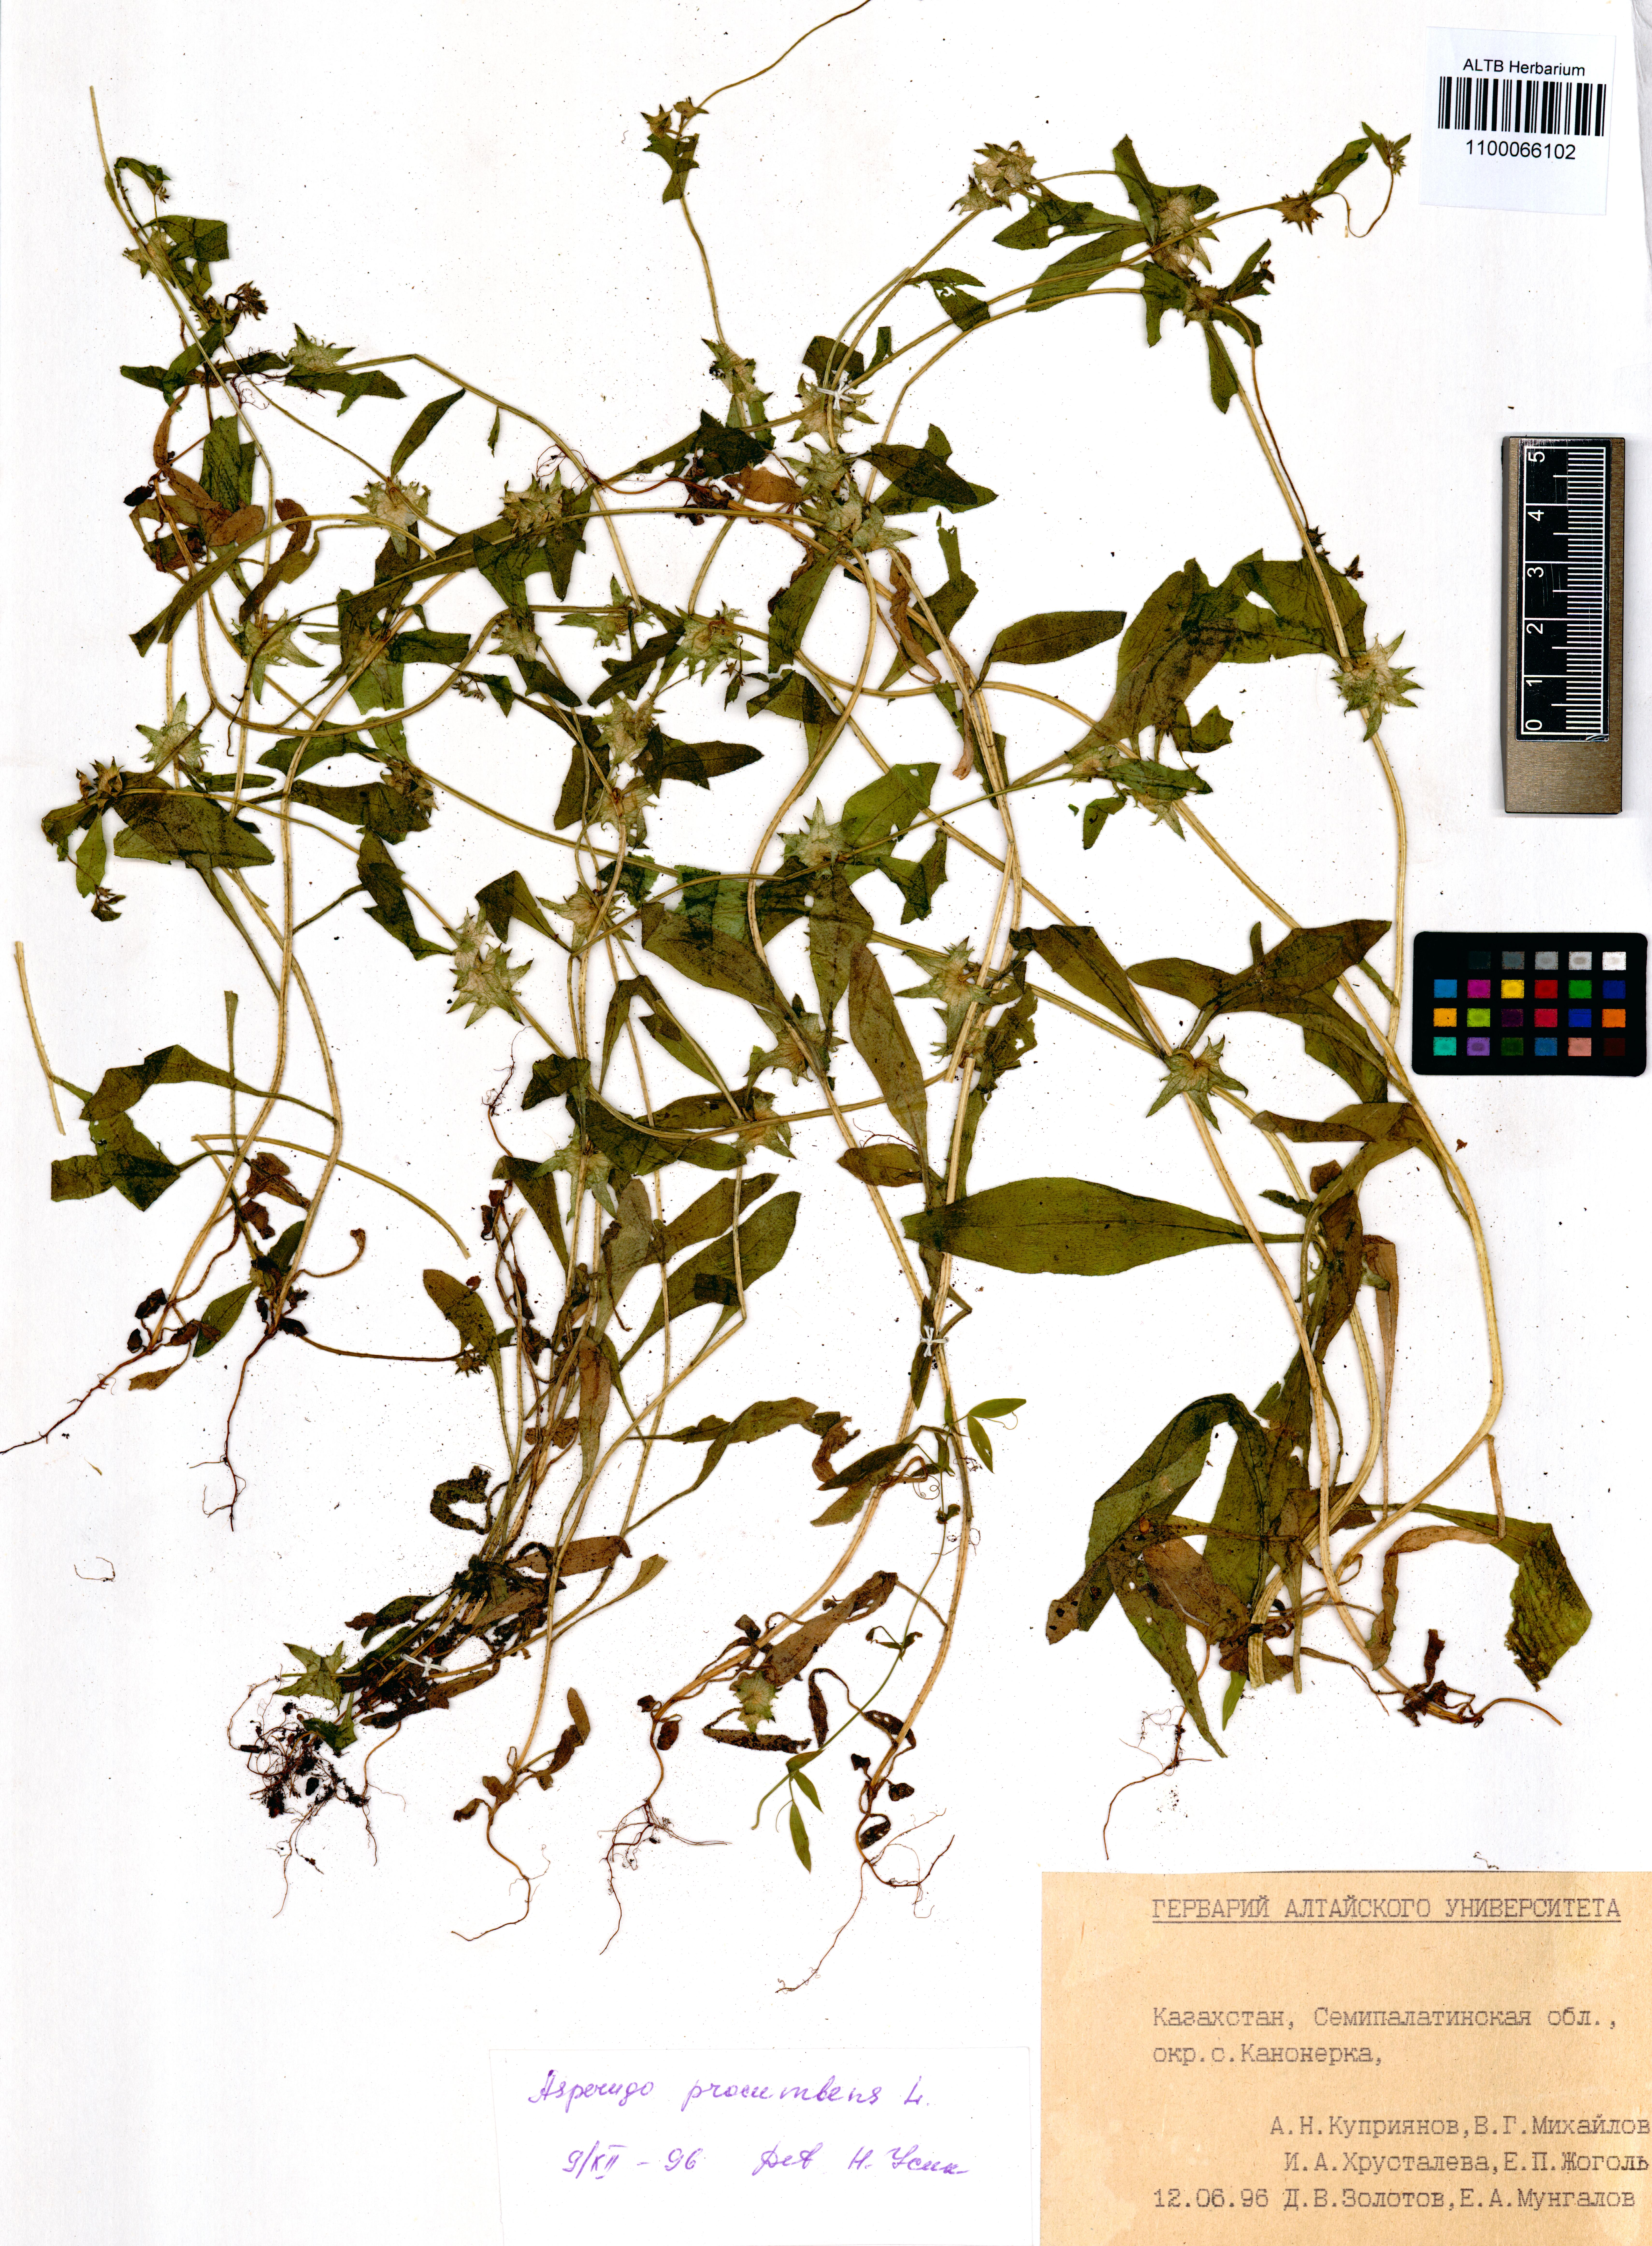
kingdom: Plantae
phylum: Tracheophyta
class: Magnoliopsida
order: Boraginales
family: Boraginaceae
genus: Asperugo
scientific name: Asperugo procumbens
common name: Madwort
